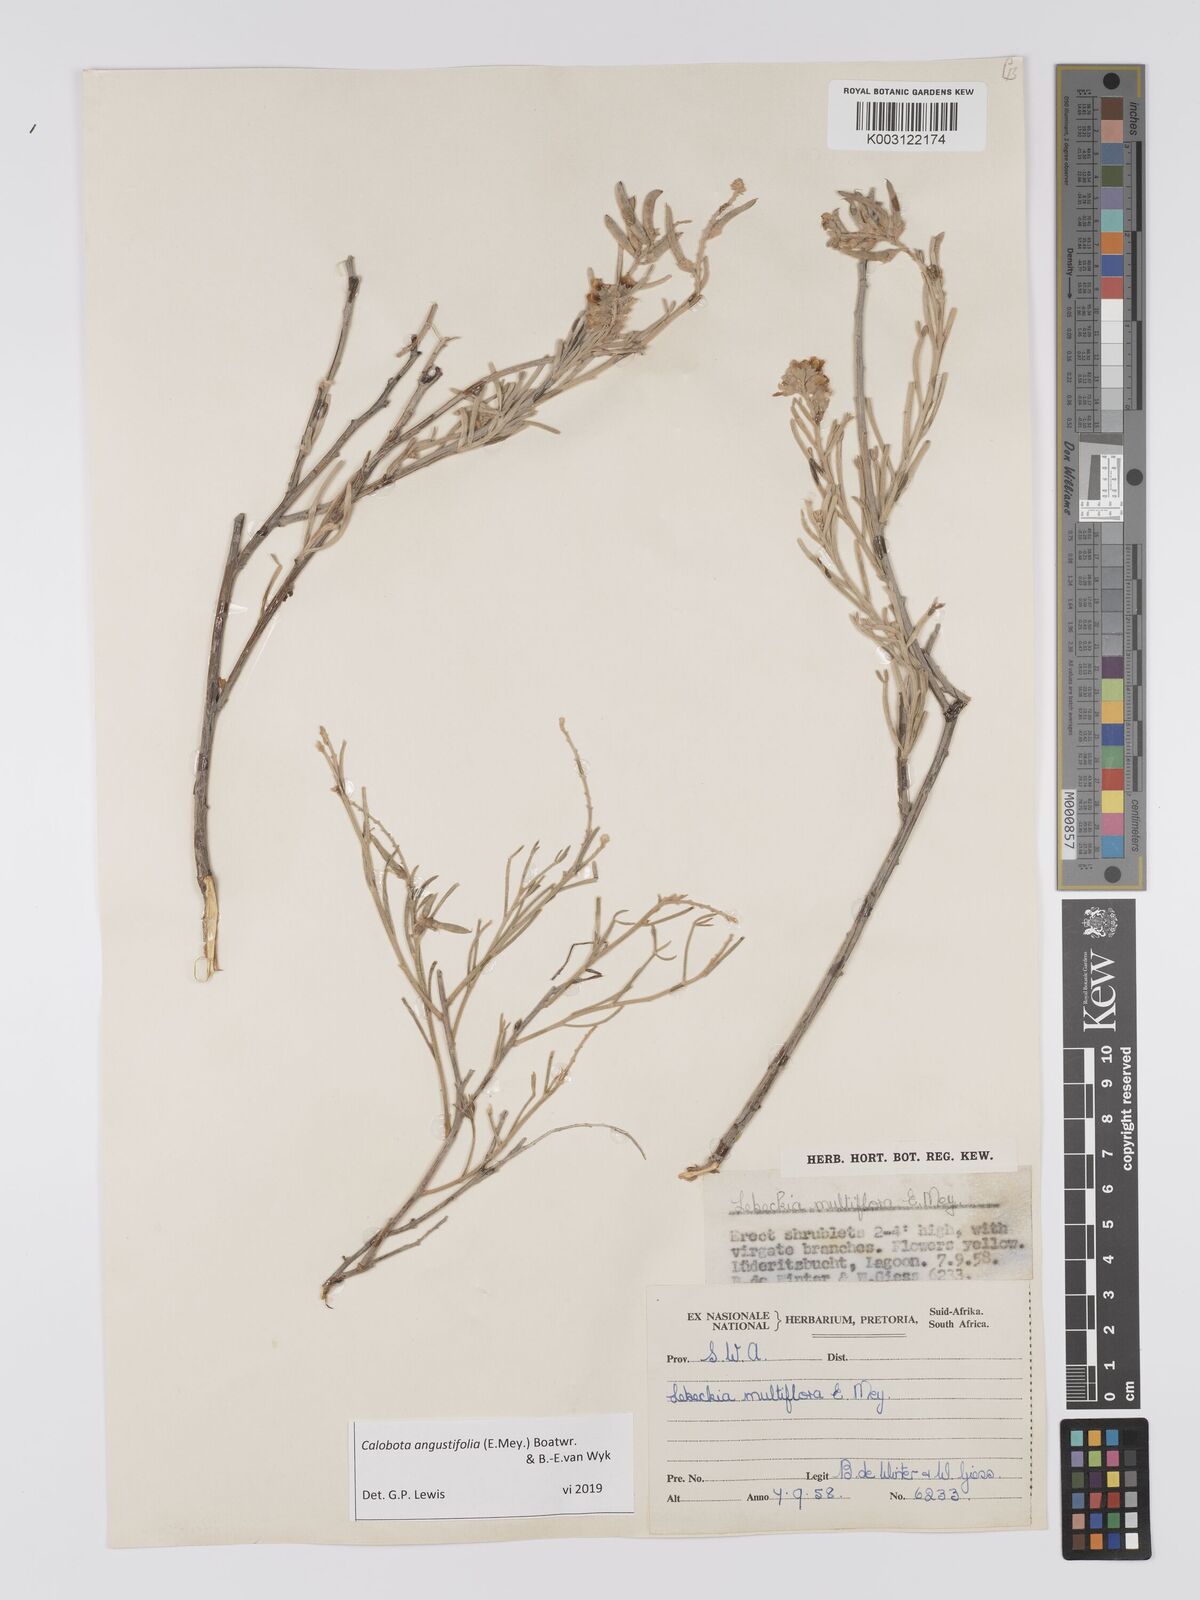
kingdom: Plantae
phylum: Tracheophyta
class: Magnoliopsida
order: Fabales
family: Fabaceae
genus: Calobota
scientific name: Calobota angustifolia
